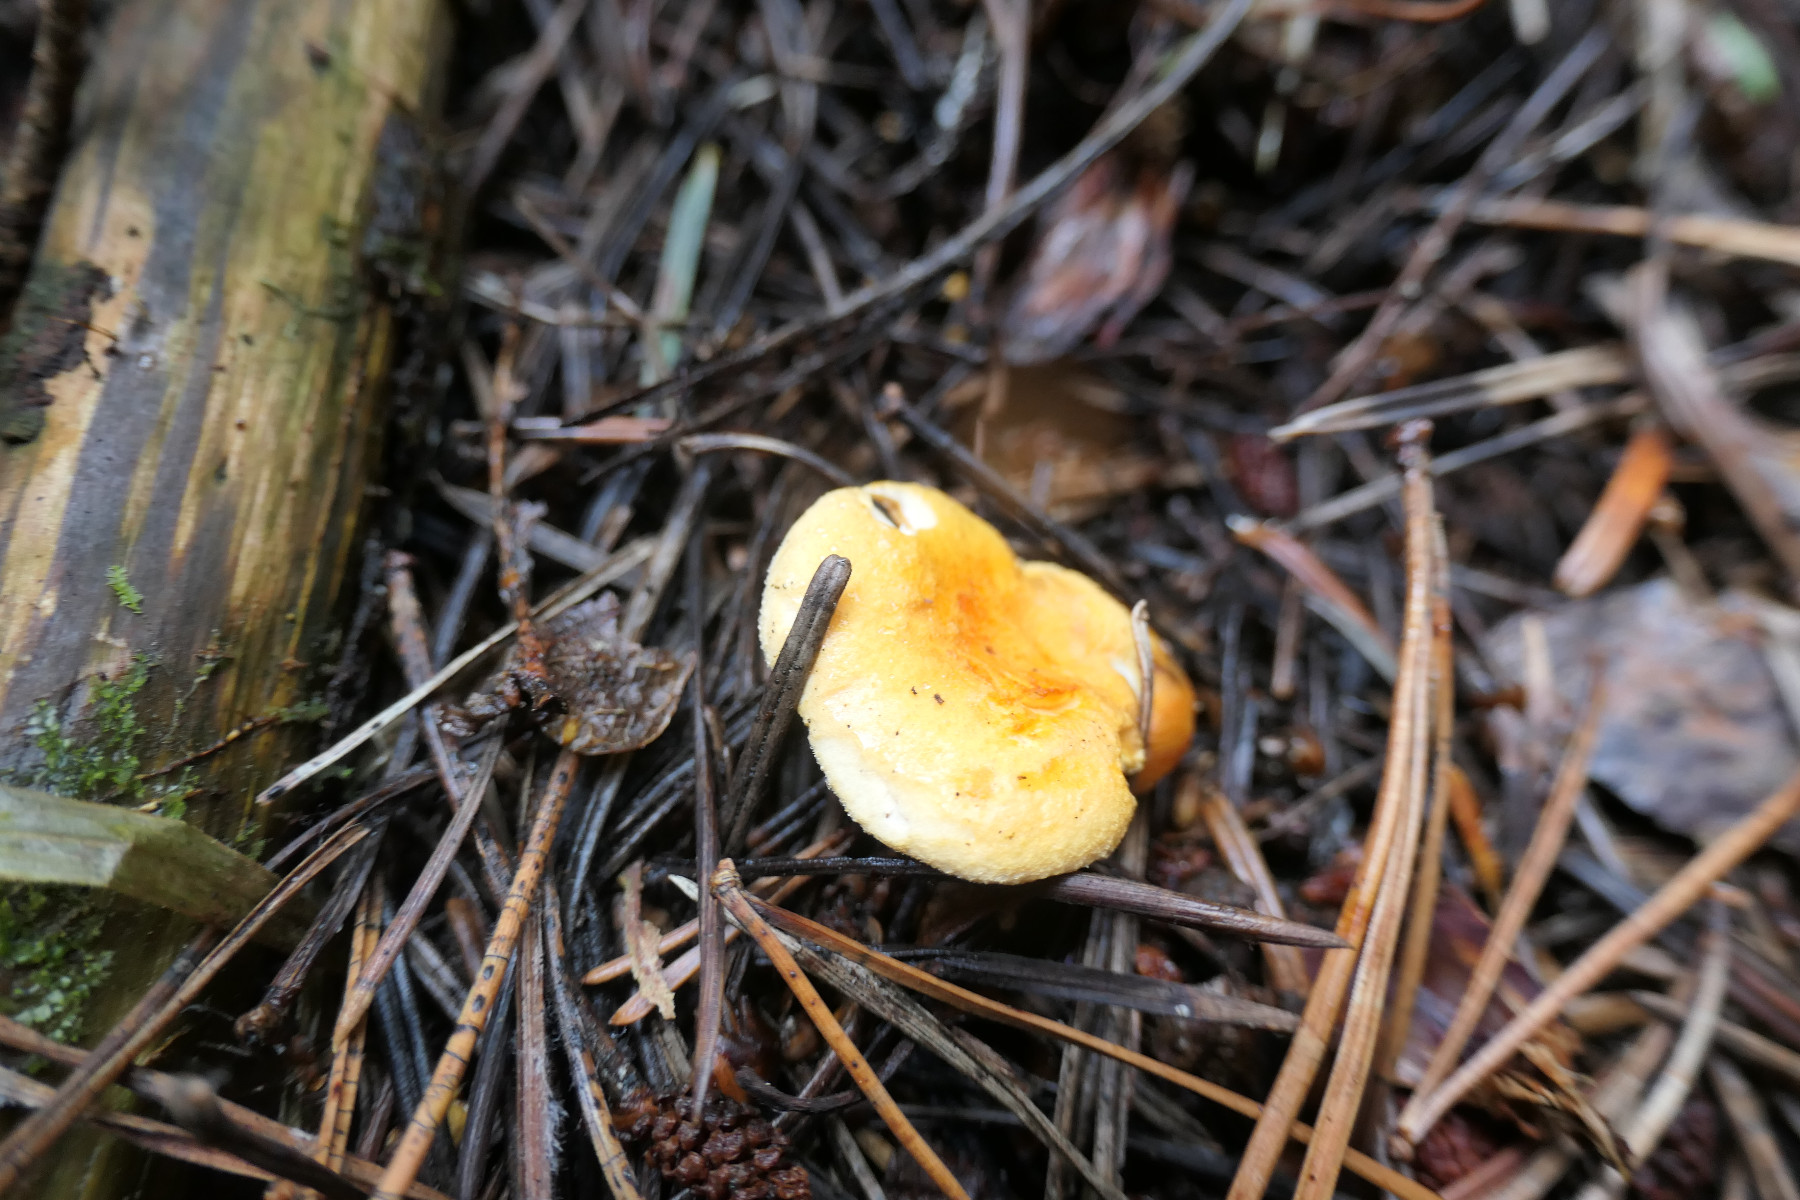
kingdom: Fungi
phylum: Basidiomycota
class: Agaricomycetes
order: Boletales
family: Hygrophoropsidaceae
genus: Hygrophoropsis
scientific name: Hygrophoropsis aurantiaca
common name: almindelig orangekantarel
